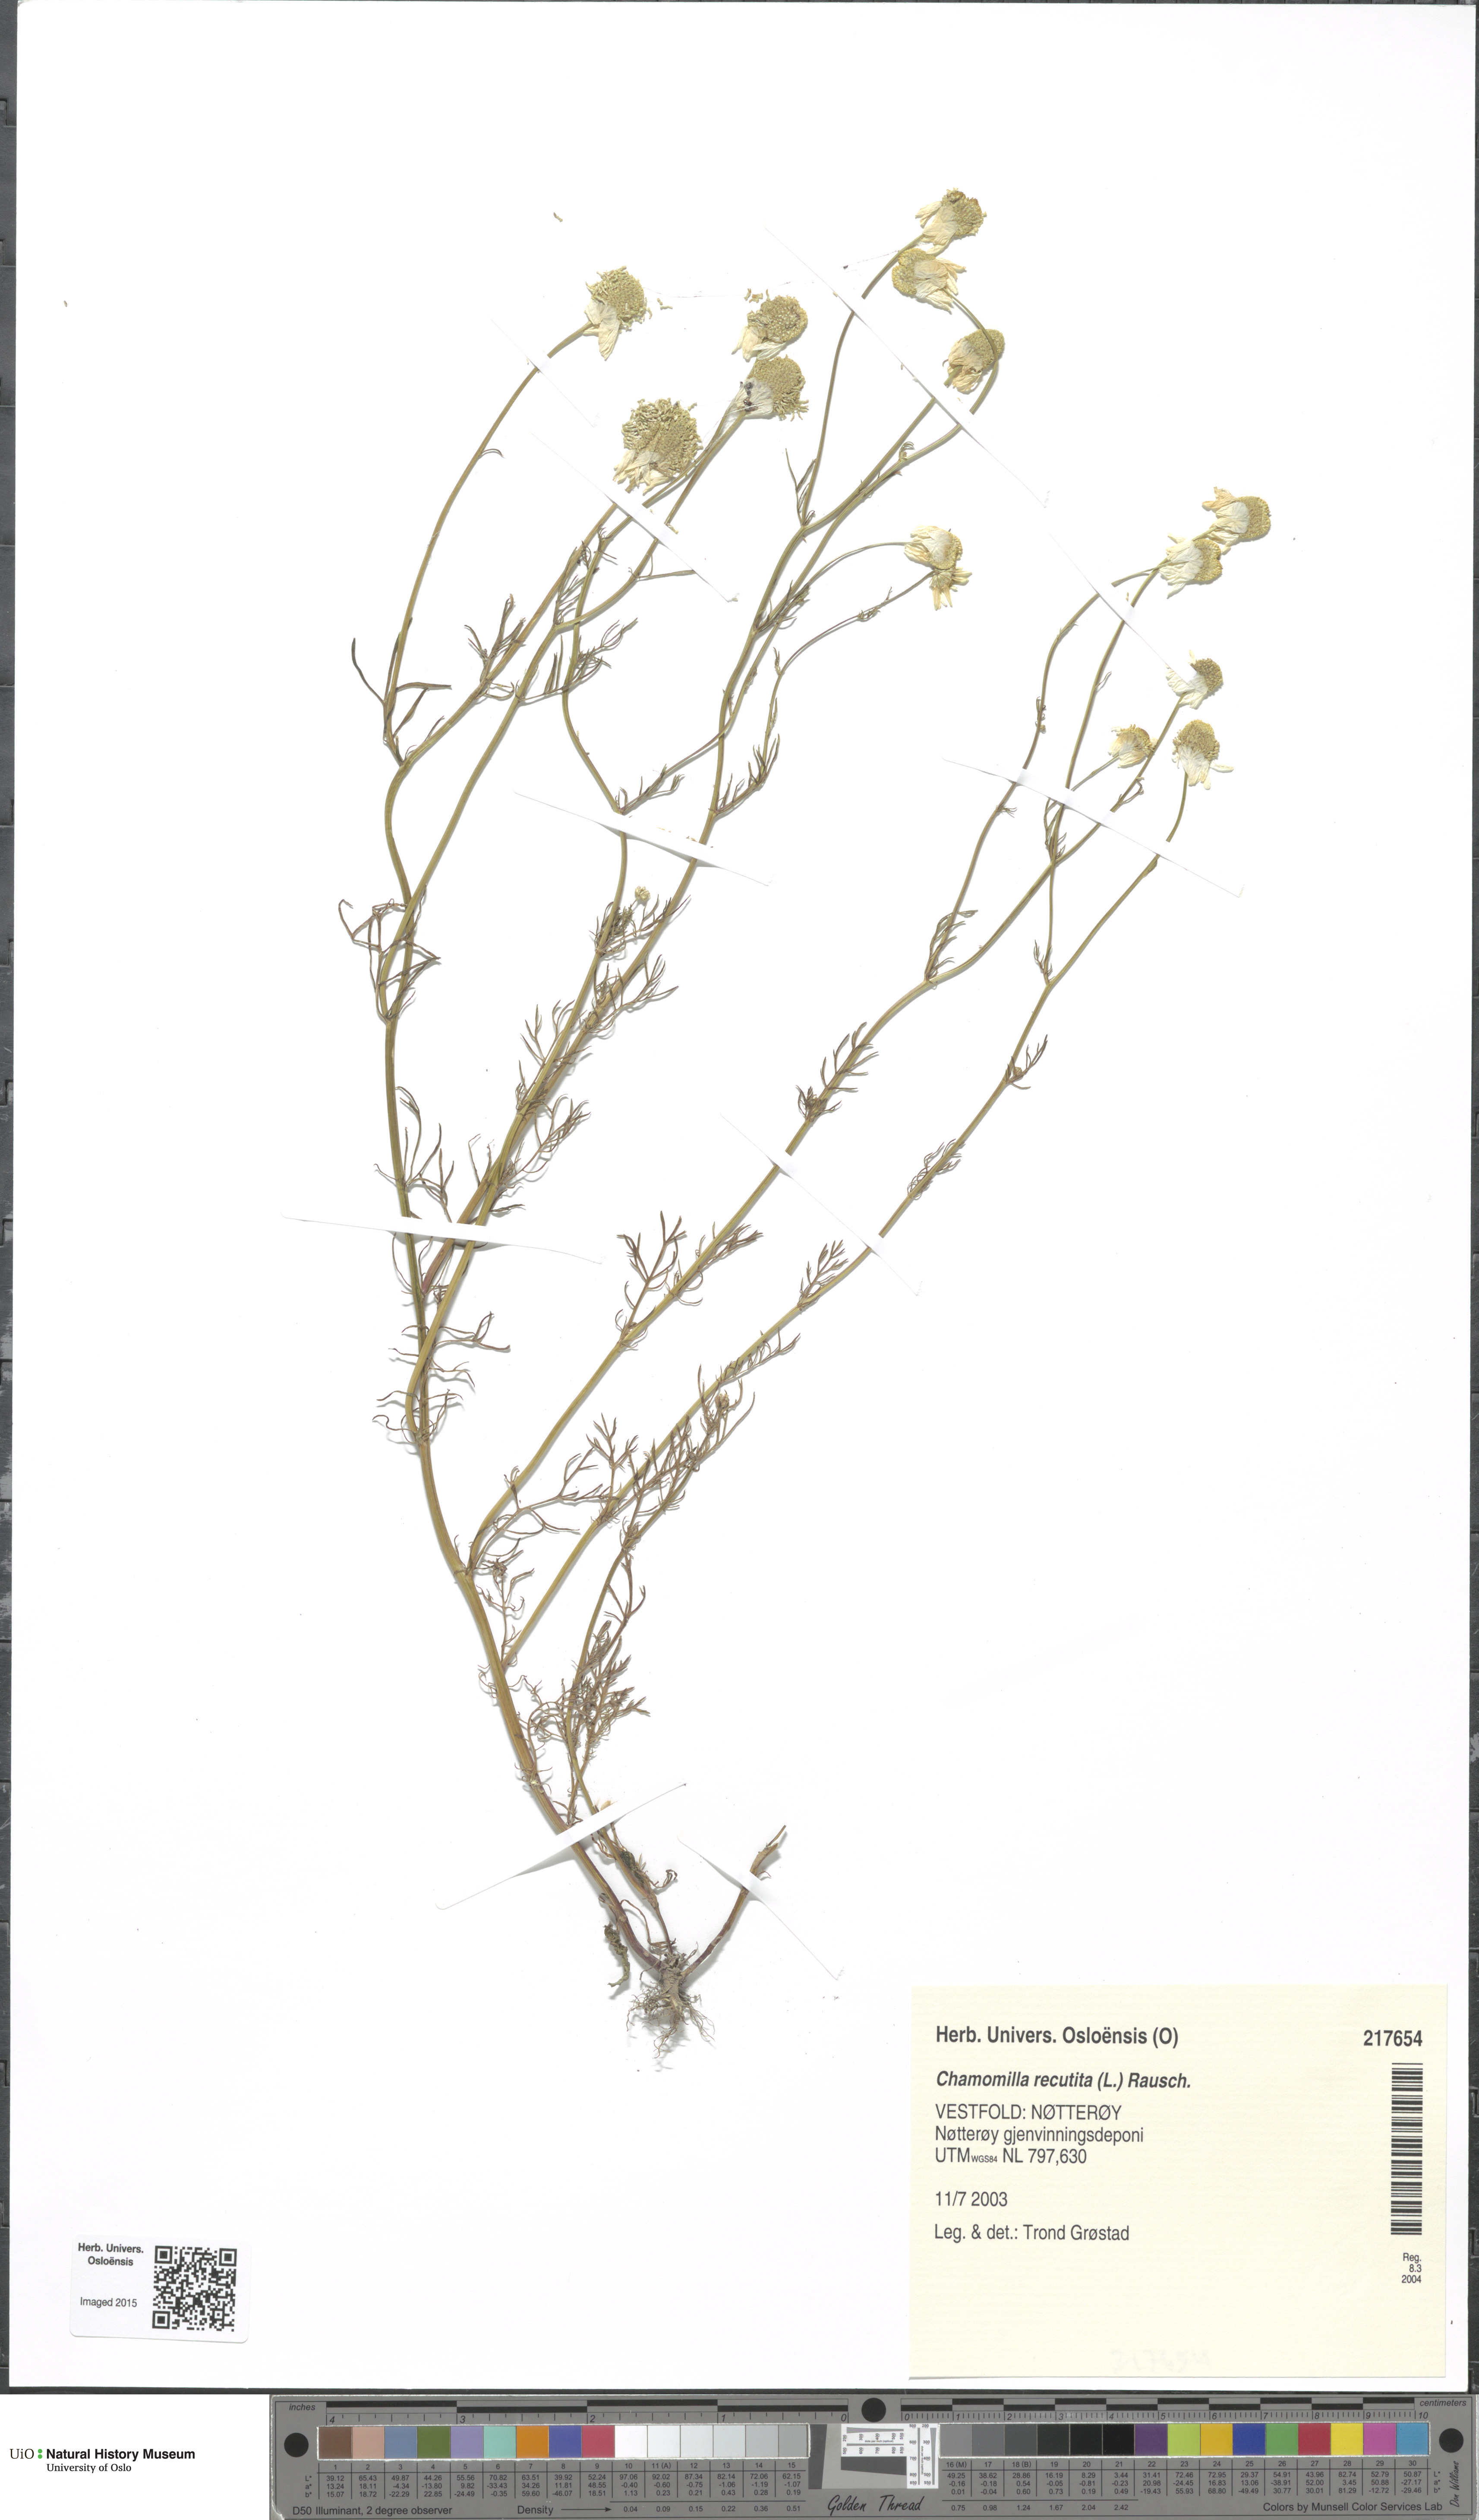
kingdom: Plantae
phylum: Tracheophyta
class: Magnoliopsida
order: Asterales
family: Asteraceae
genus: Matricaria
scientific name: Matricaria chamomilla
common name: Scented mayweed
